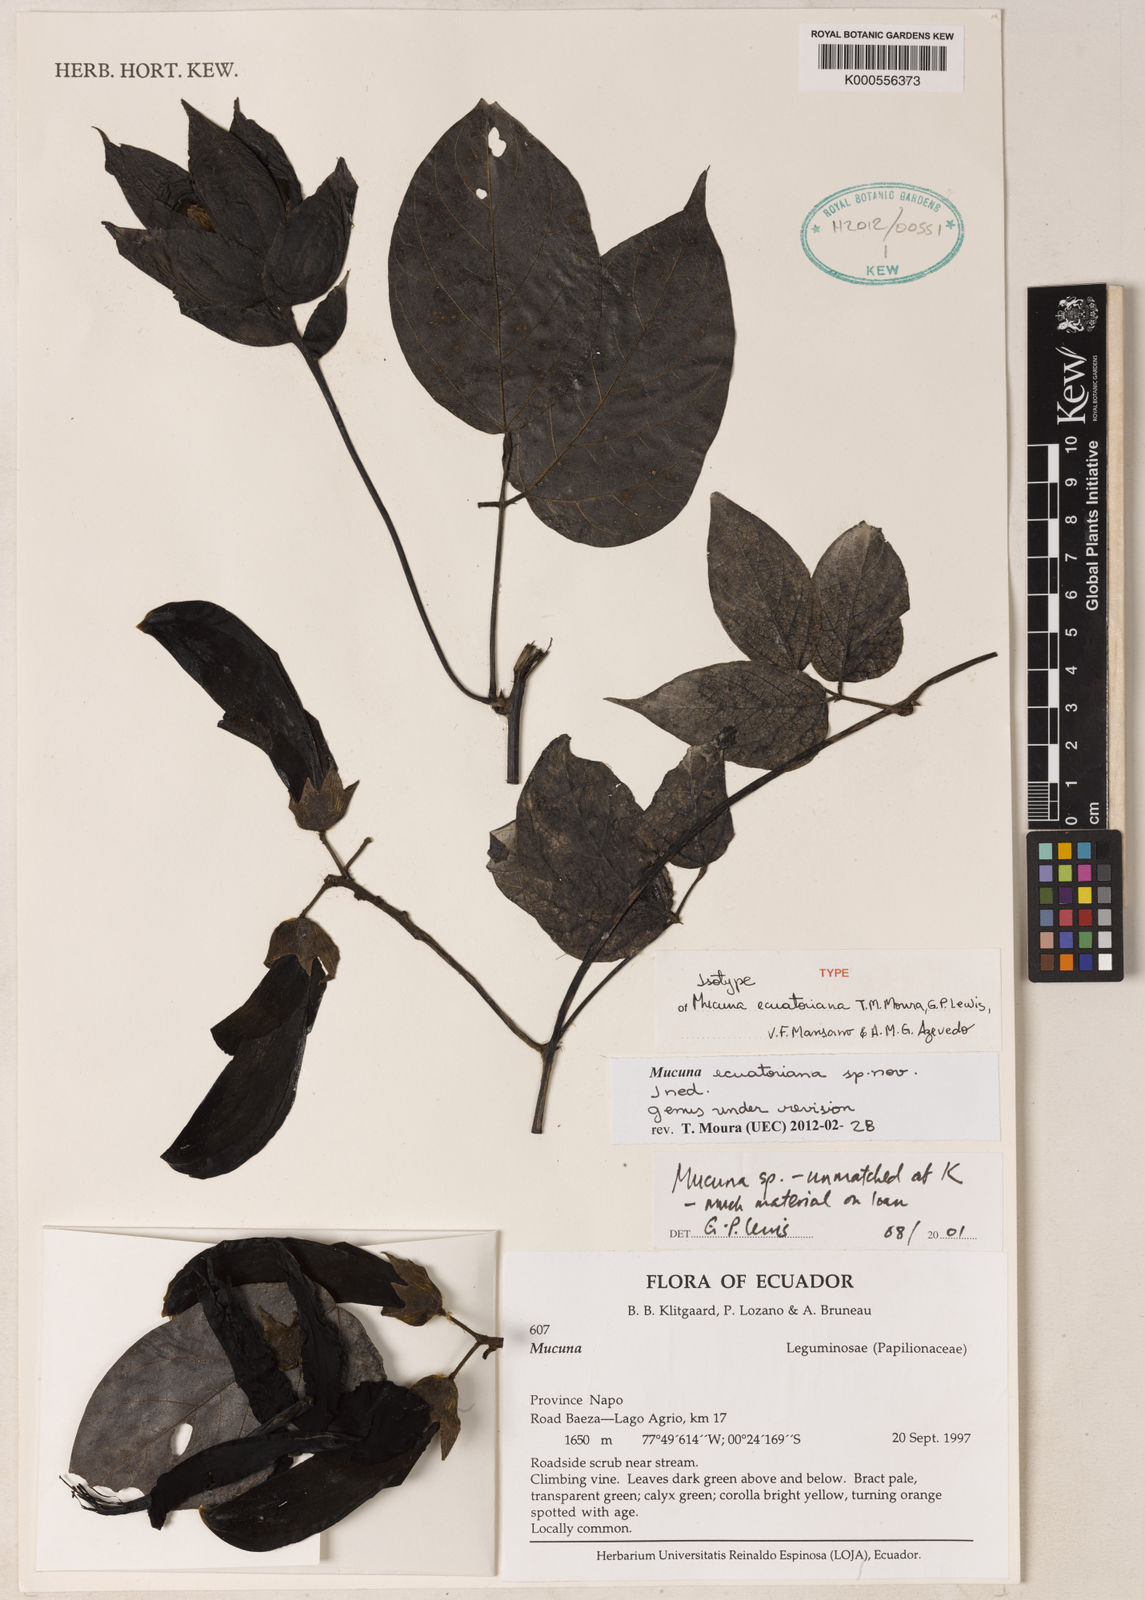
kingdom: Plantae
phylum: Tracheophyta
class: Magnoliopsida
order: Fabales
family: Fabaceae
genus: Mucuna
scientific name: Mucuna
